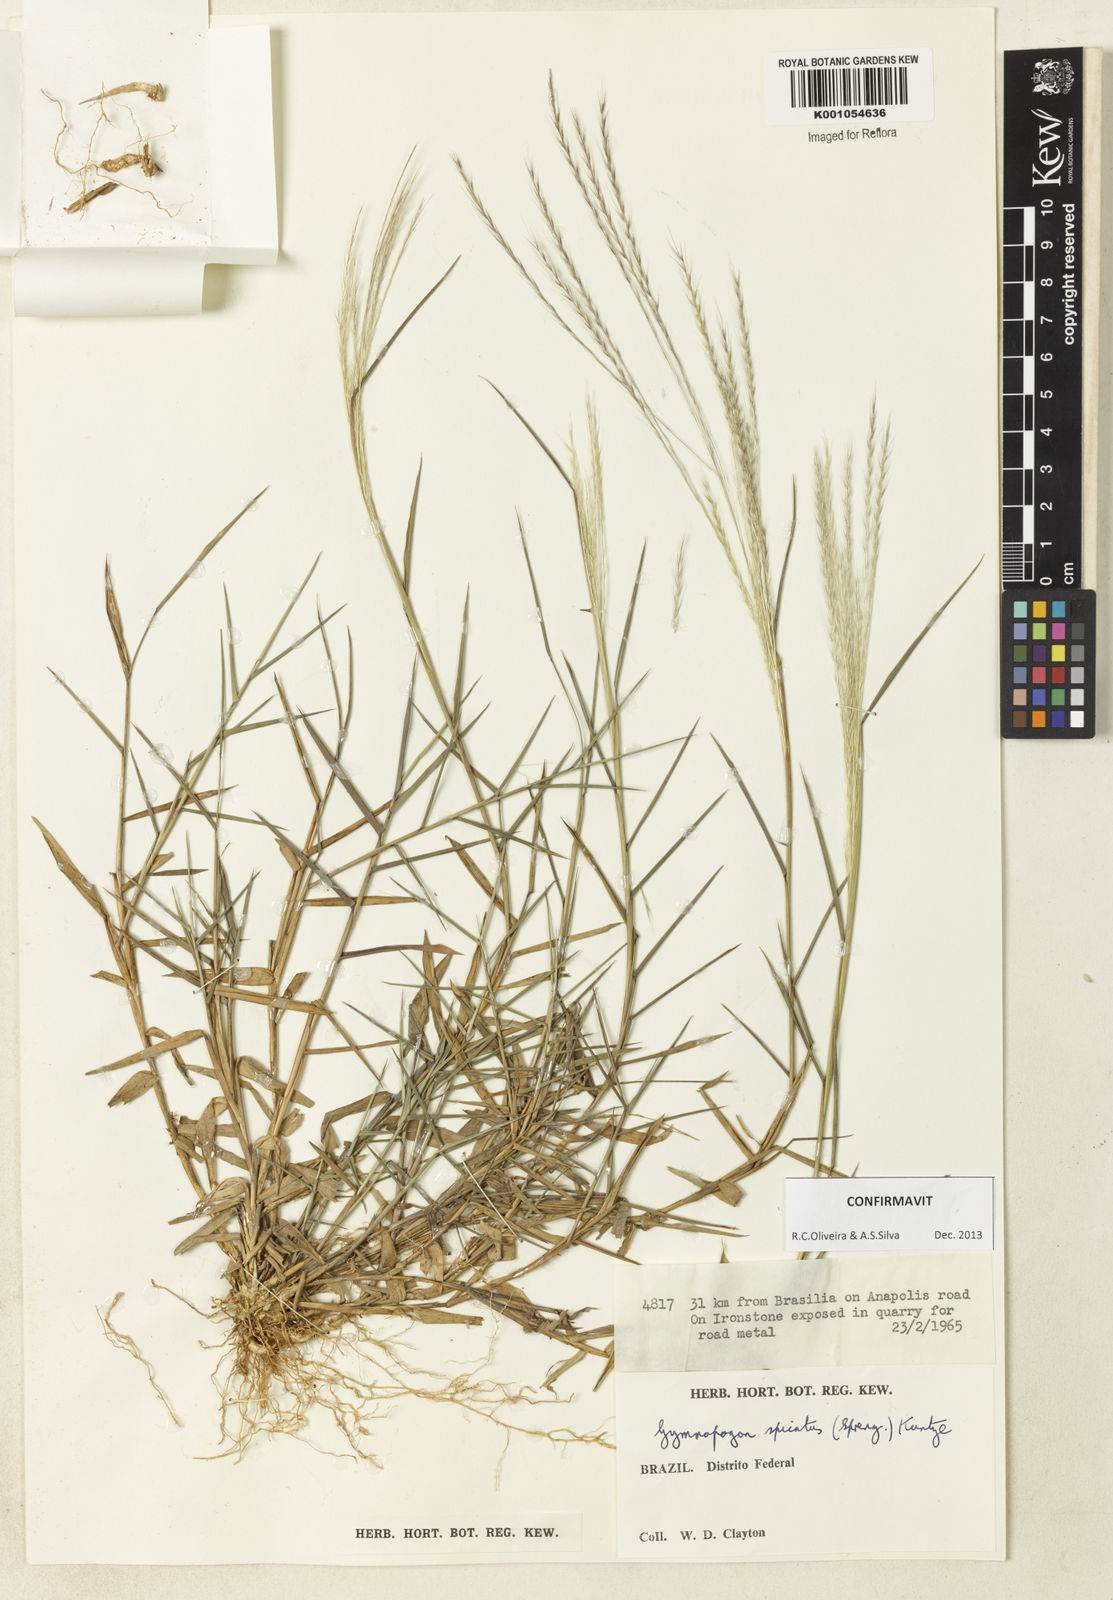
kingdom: Plantae
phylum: Tracheophyta
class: Liliopsida
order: Poales
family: Poaceae
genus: Gymnopogon
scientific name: Gymnopogon spicatus
